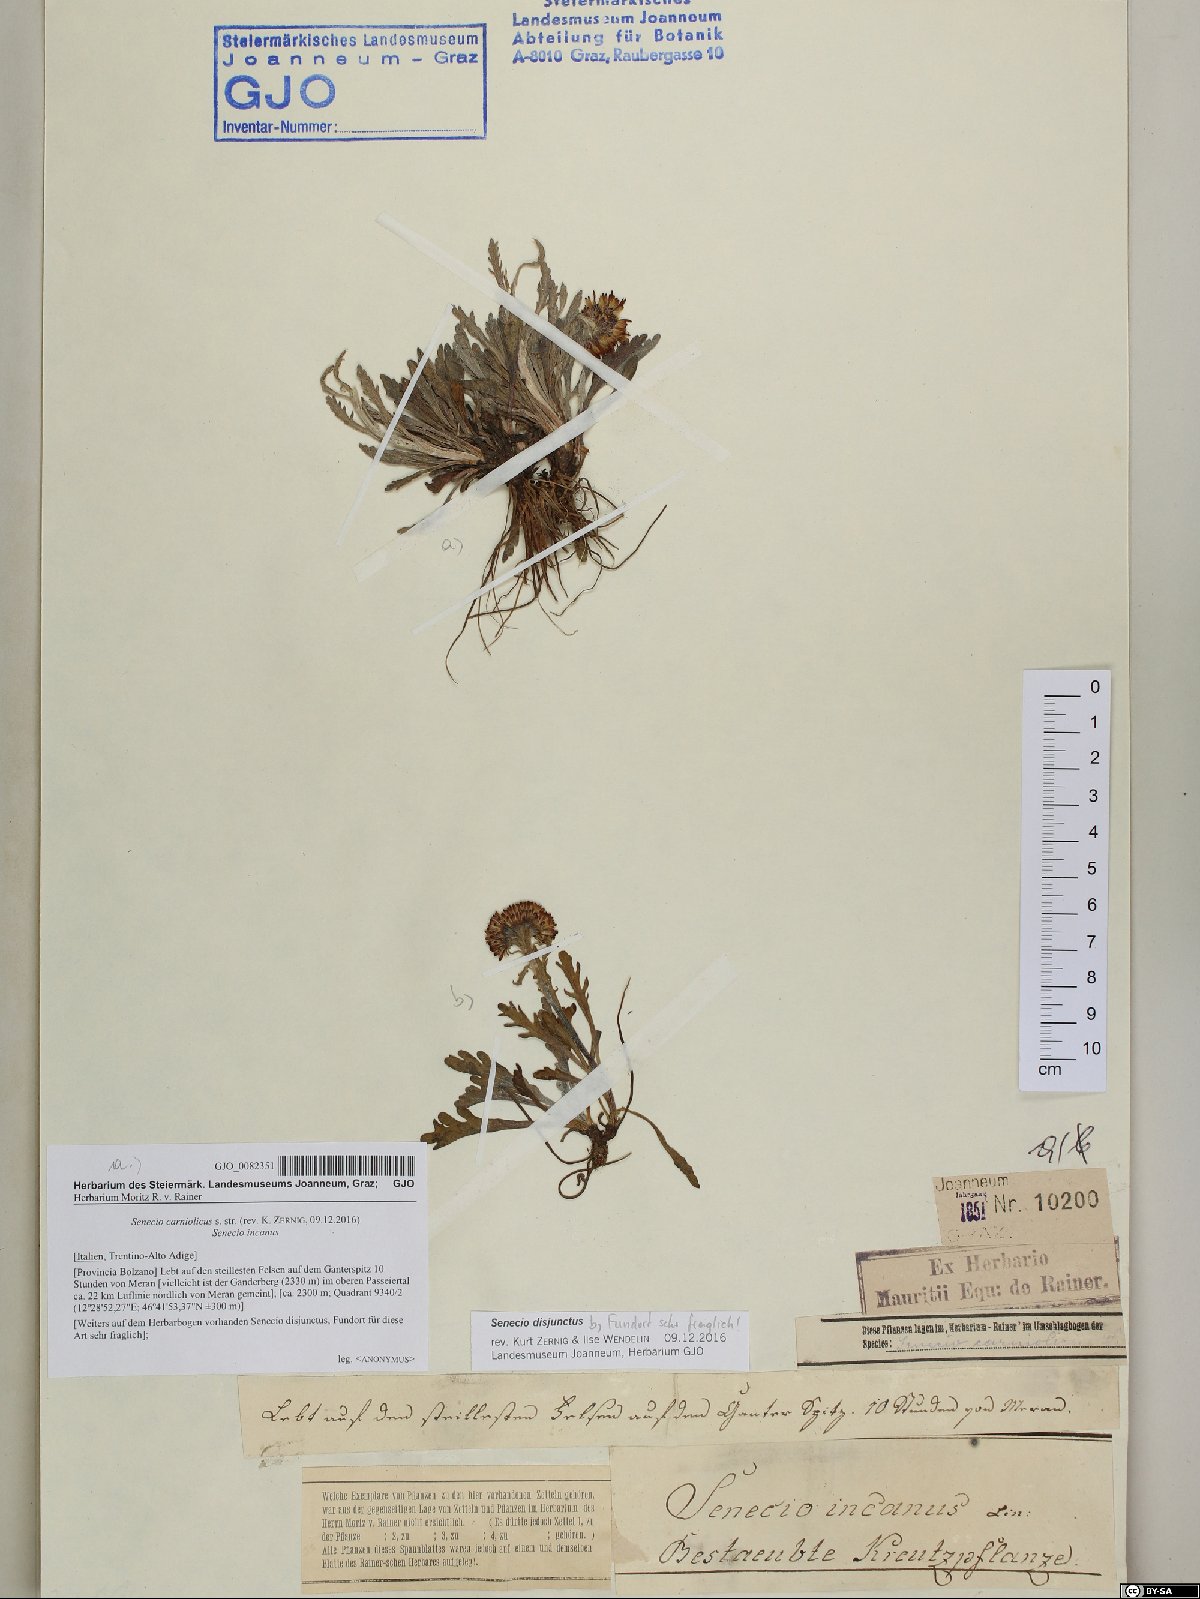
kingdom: Plantae
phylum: Tracheophyta
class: Magnoliopsida
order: Asterales
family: Asteraceae
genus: Jacobaea
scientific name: Jacobaea carniolica
